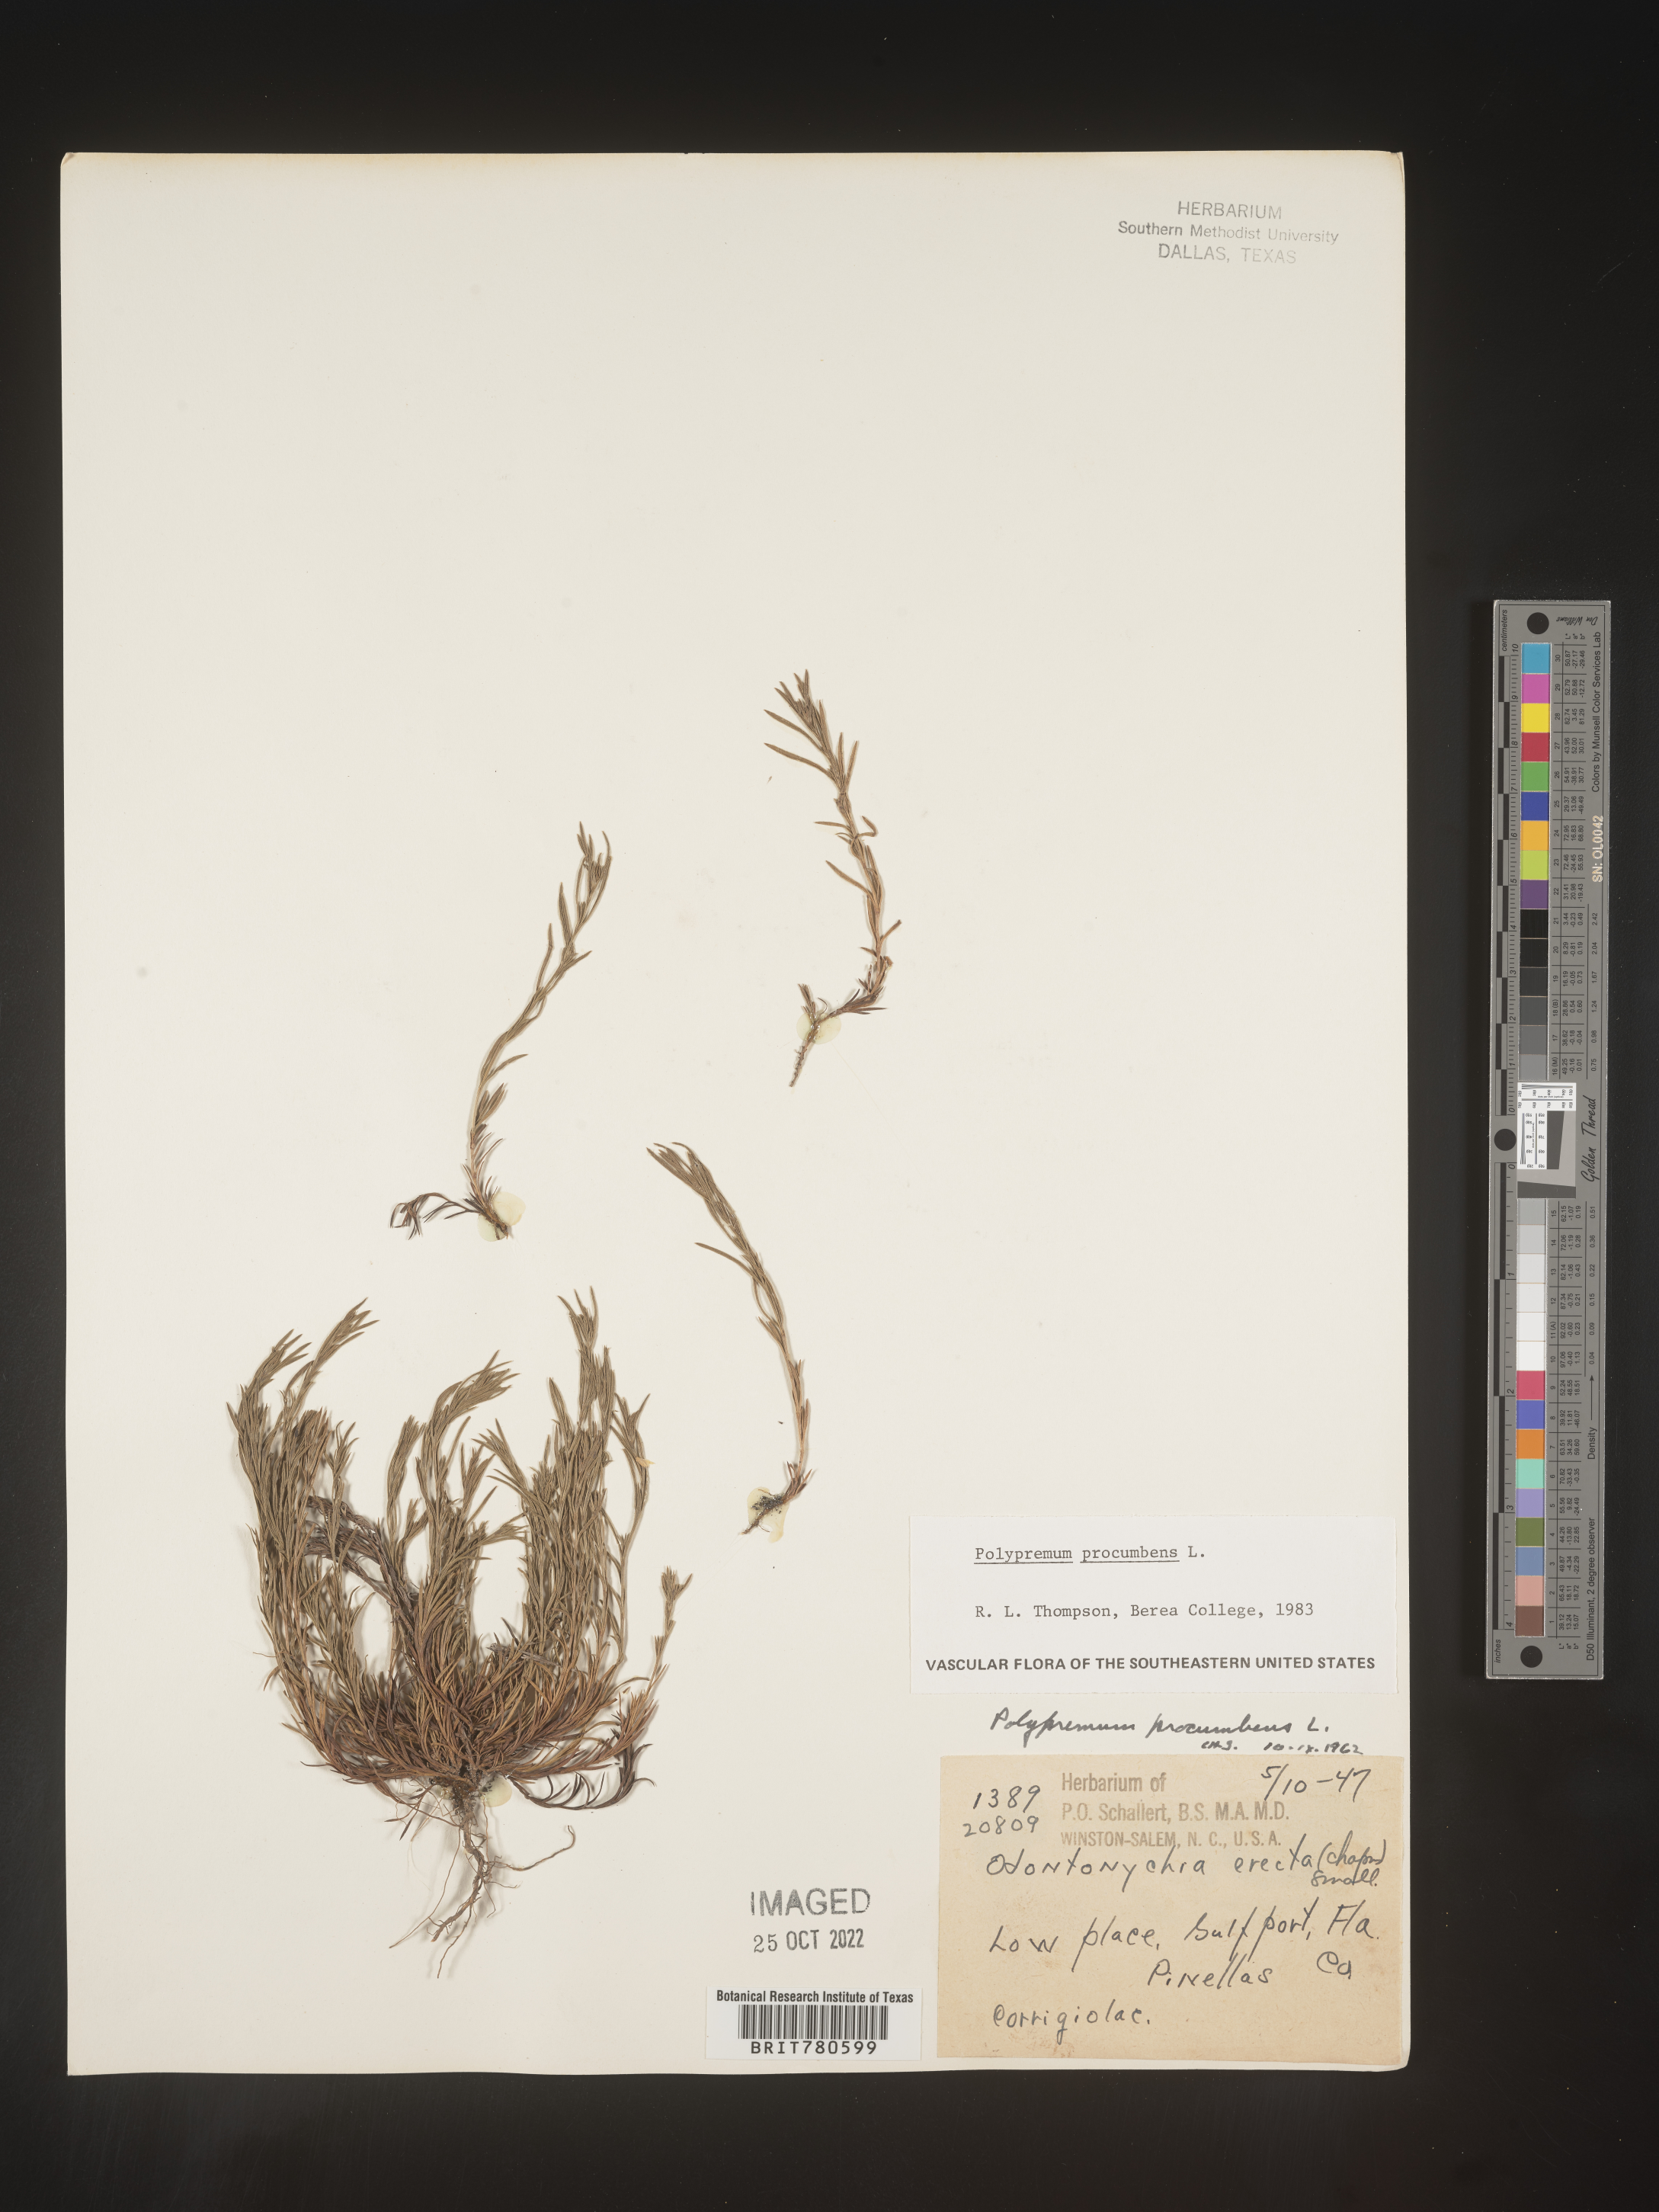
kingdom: Plantae
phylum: Tracheophyta
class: Magnoliopsida
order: Lamiales
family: Tetrachondraceae
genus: Polypremum
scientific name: Polypremum procumbens
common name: Juniper-leaf
